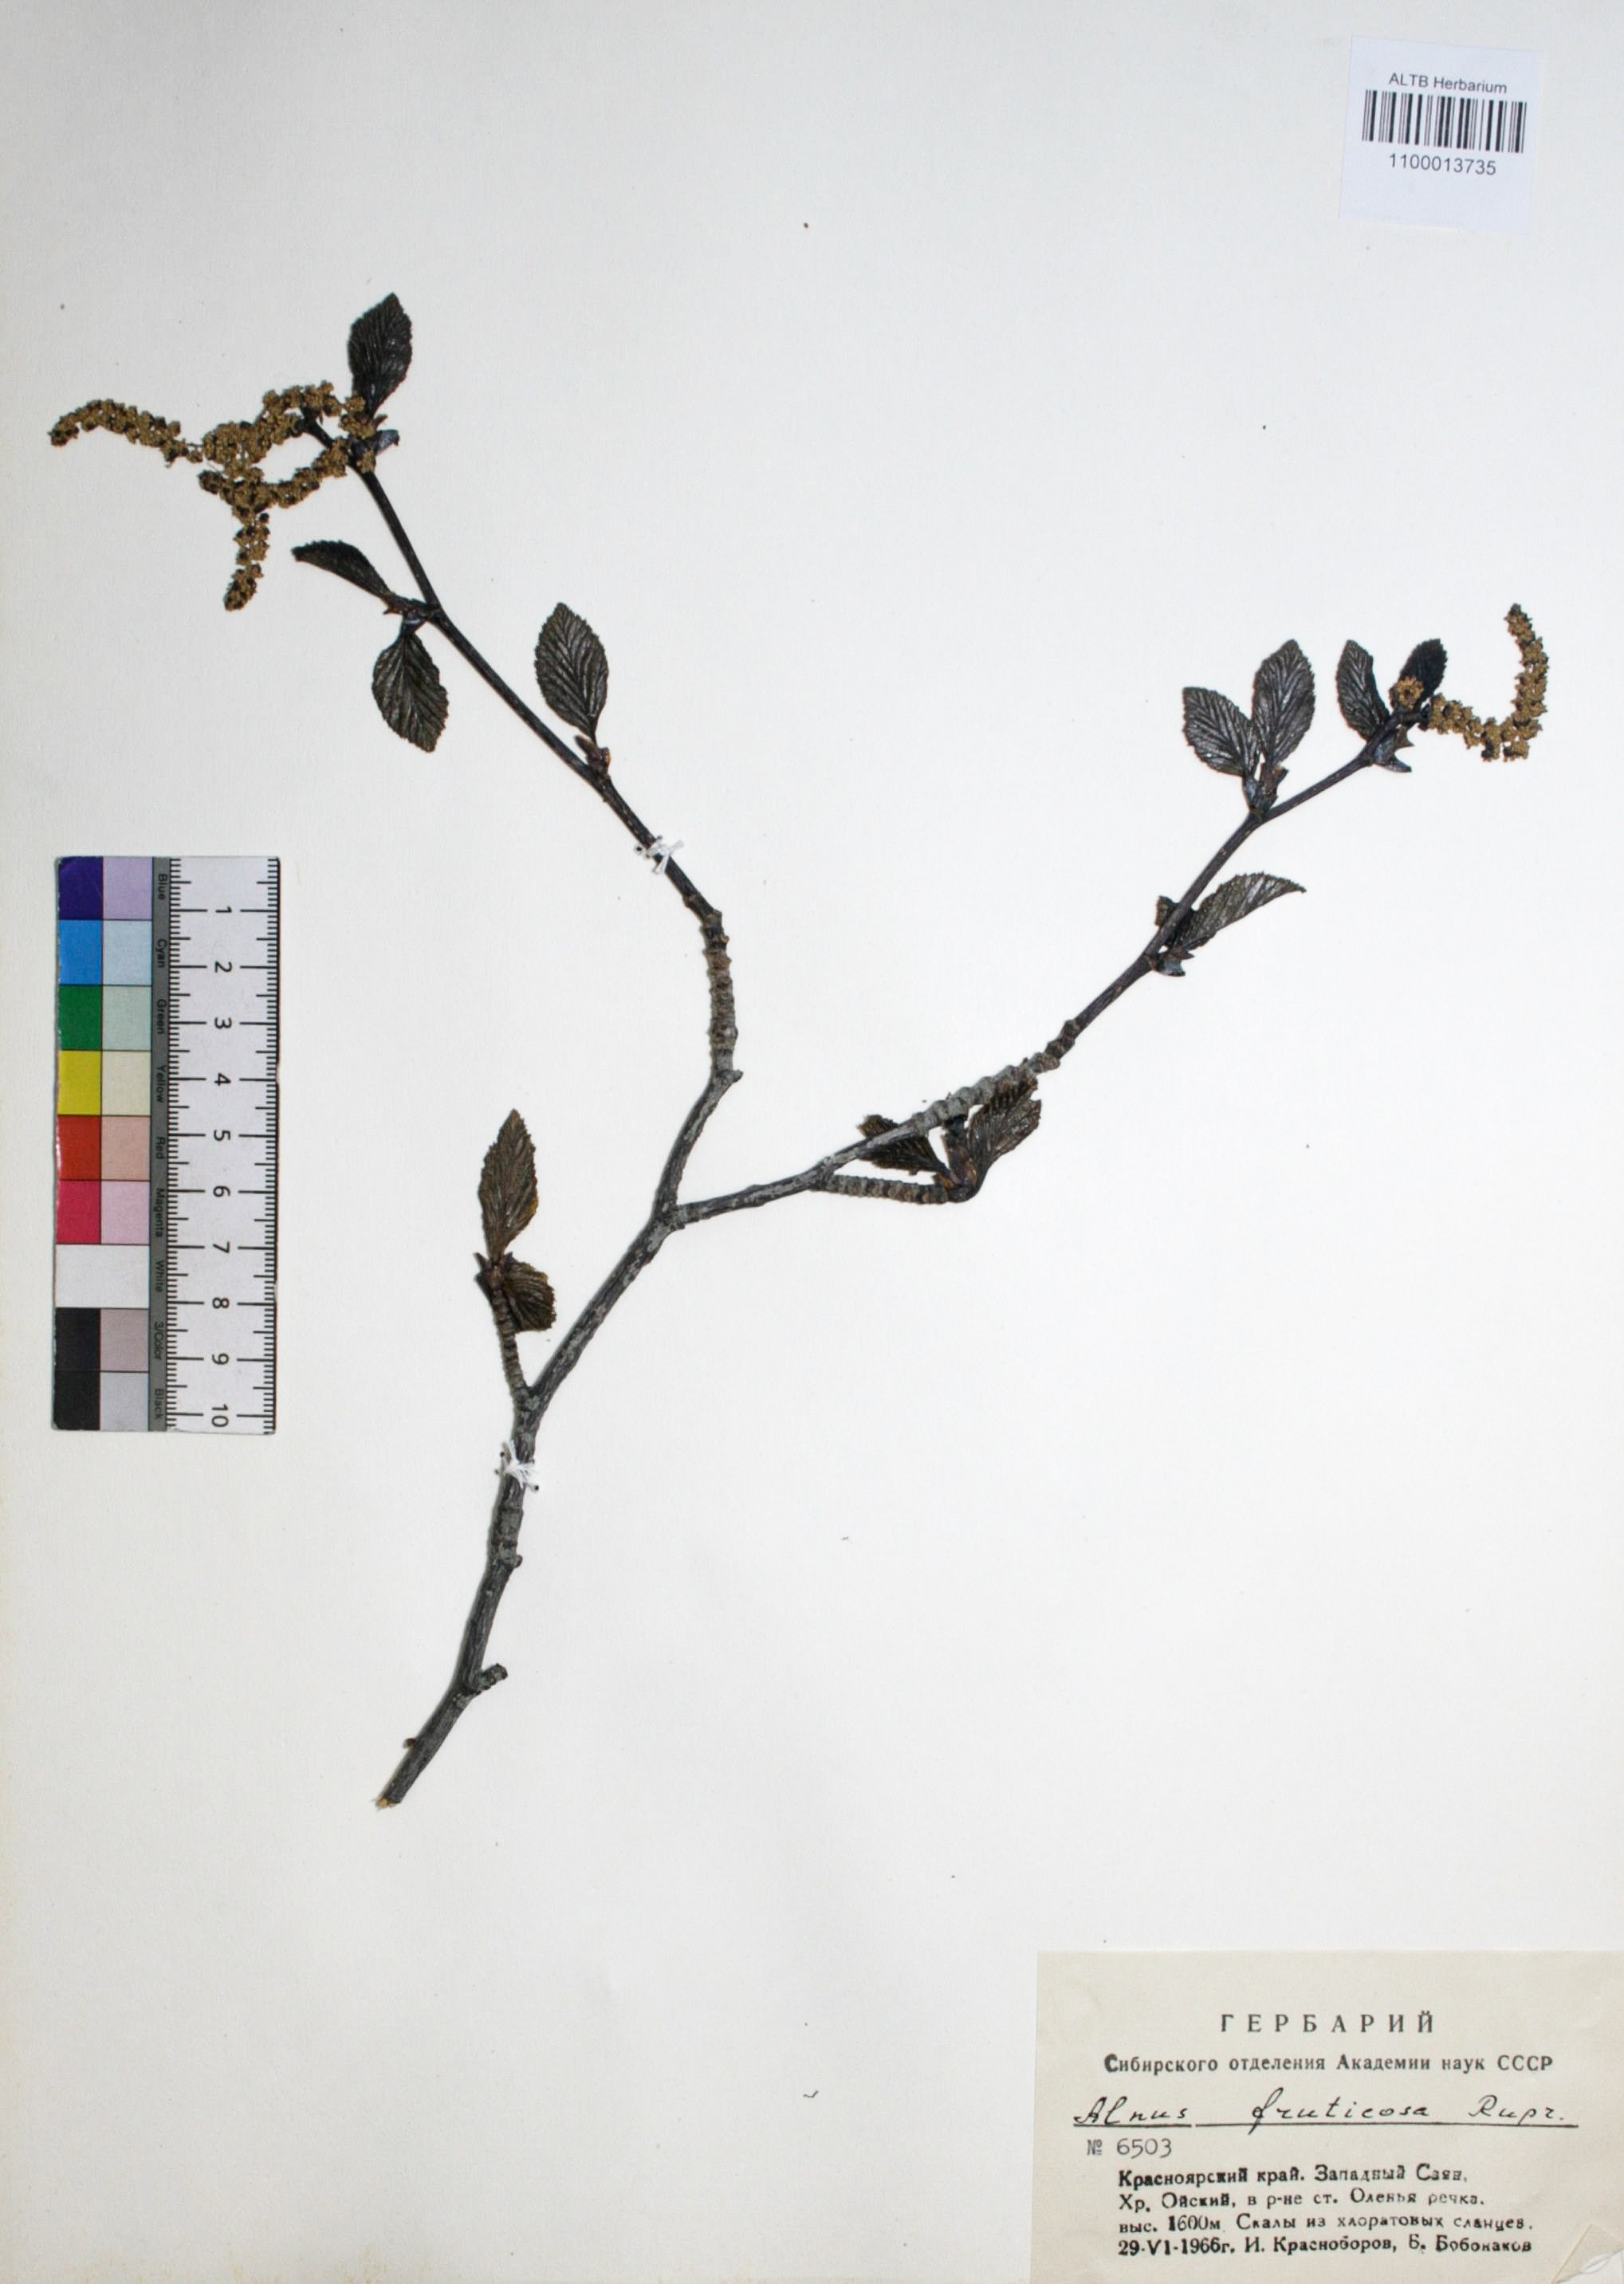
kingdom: Plantae
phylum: Tracheophyta
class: Magnoliopsida
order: Fagales
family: Betulaceae
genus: Alnus
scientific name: Alnus alnobetula
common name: Green alder
